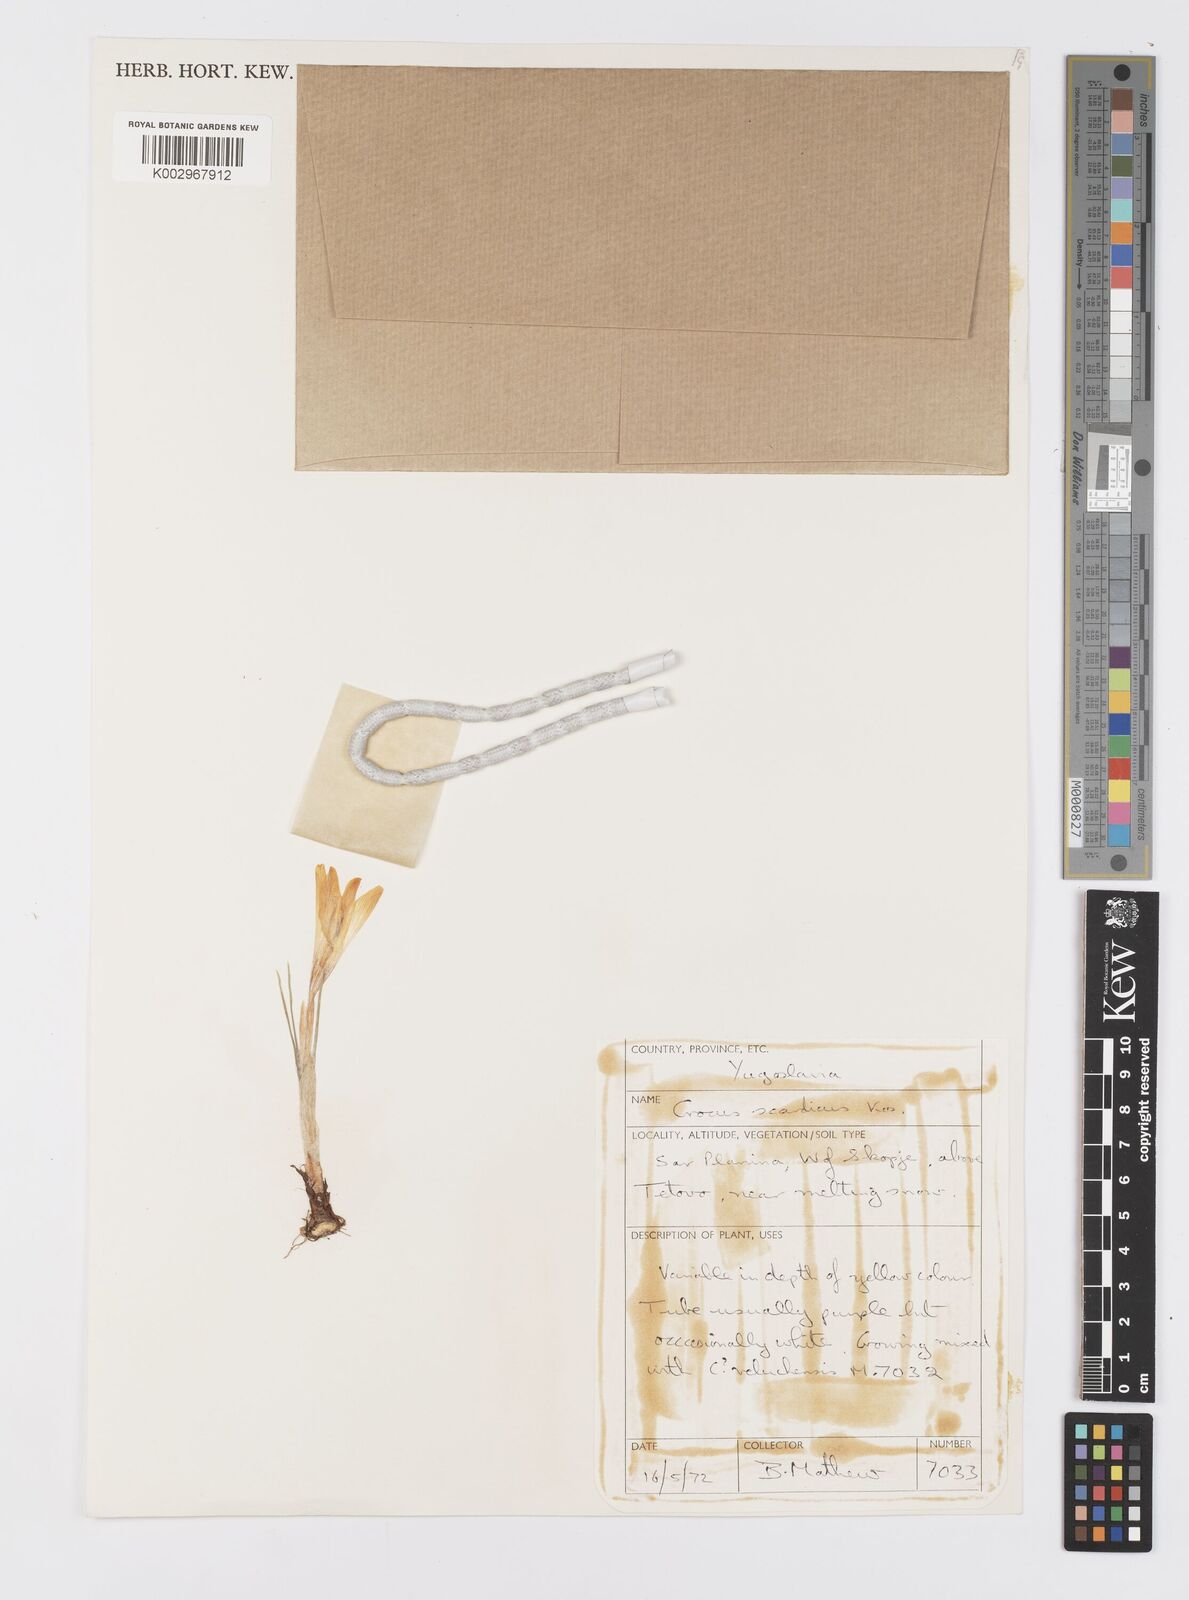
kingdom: Plantae
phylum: Tracheophyta
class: Liliopsida
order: Asparagales
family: Iridaceae
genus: Crocus
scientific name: Crocus scardicus
